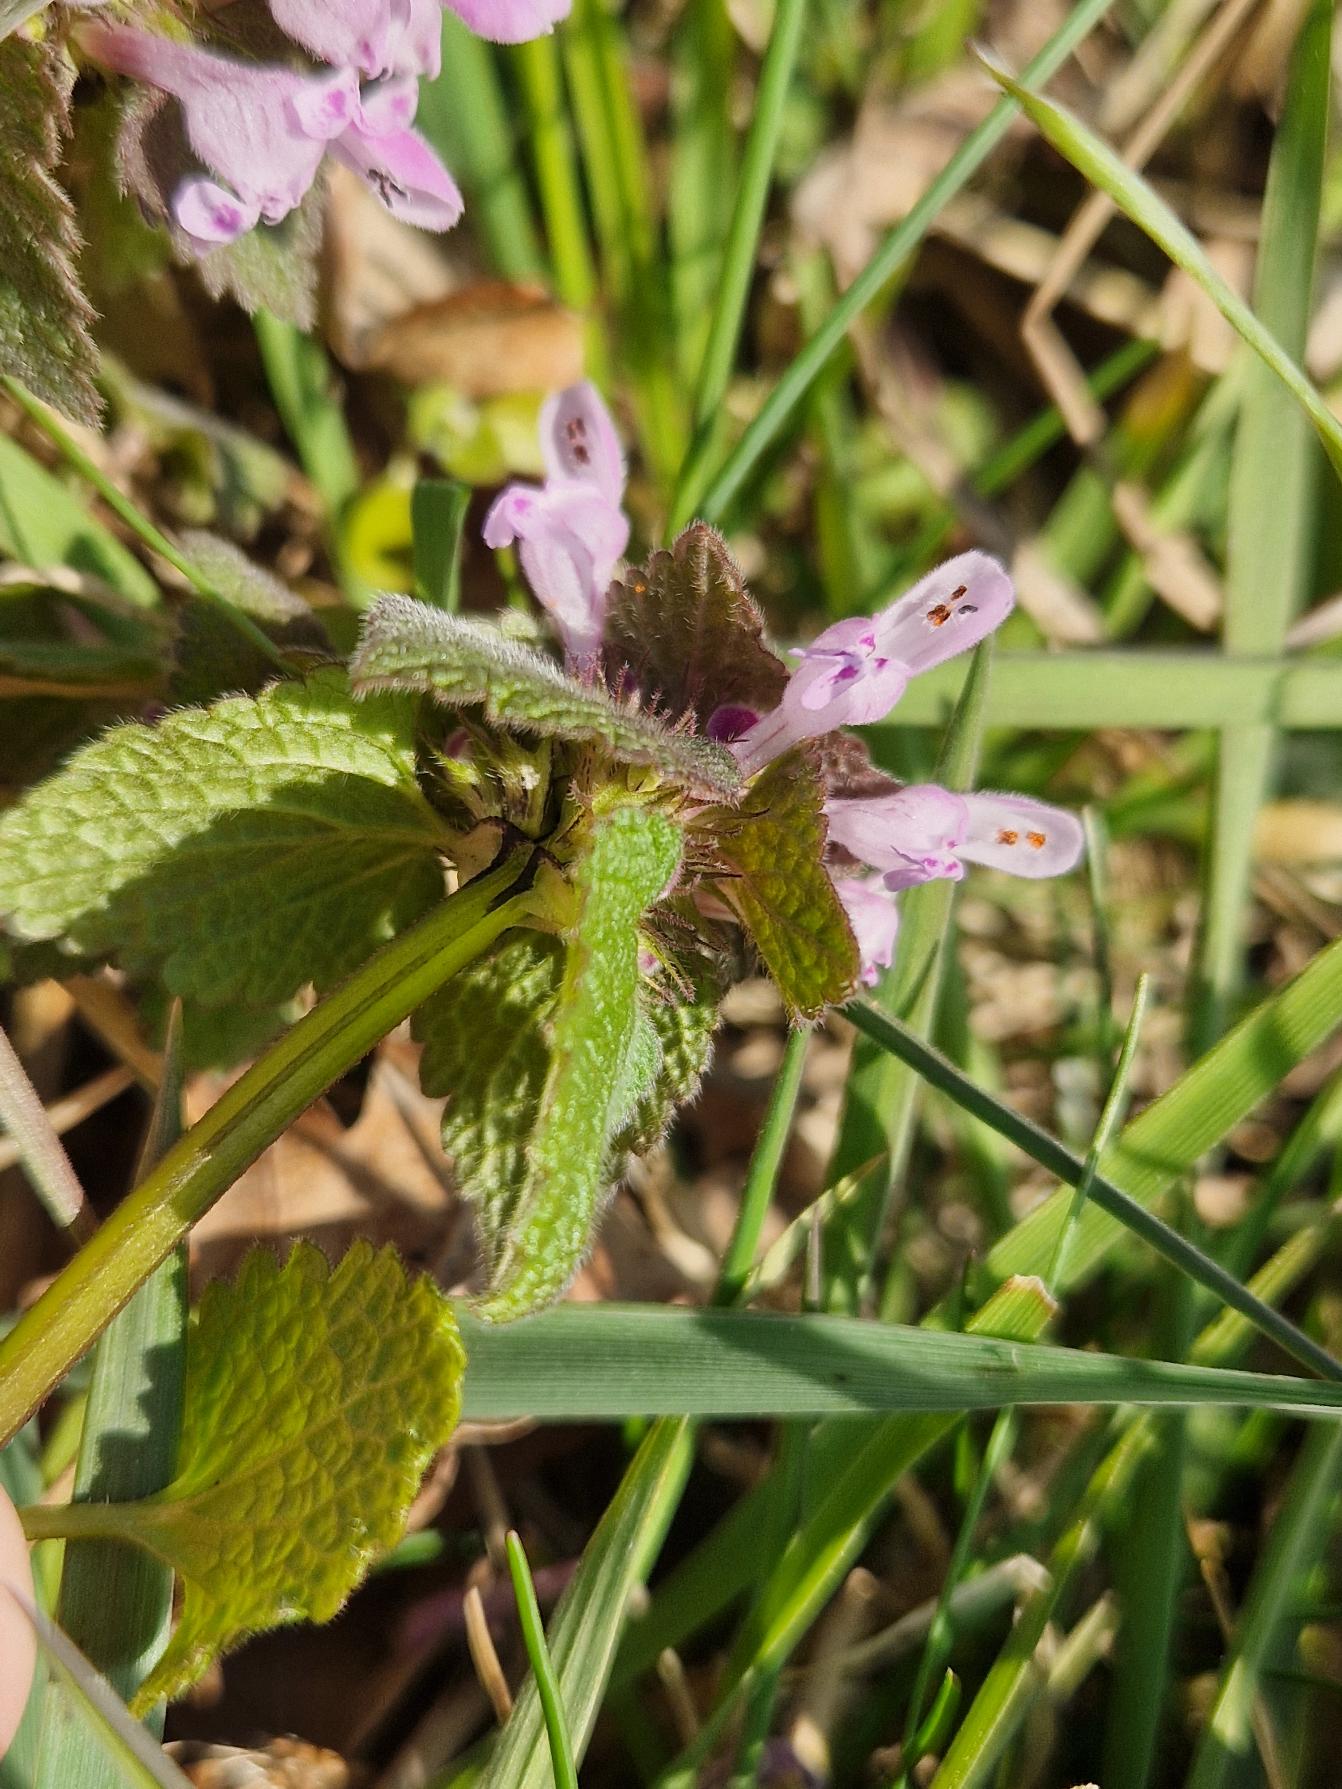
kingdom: Plantae
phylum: Tracheophyta
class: Magnoliopsida
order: Lamiales
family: Lamiaceae
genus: Lamium
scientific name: Lamium purpureum
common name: Rød tvetand
